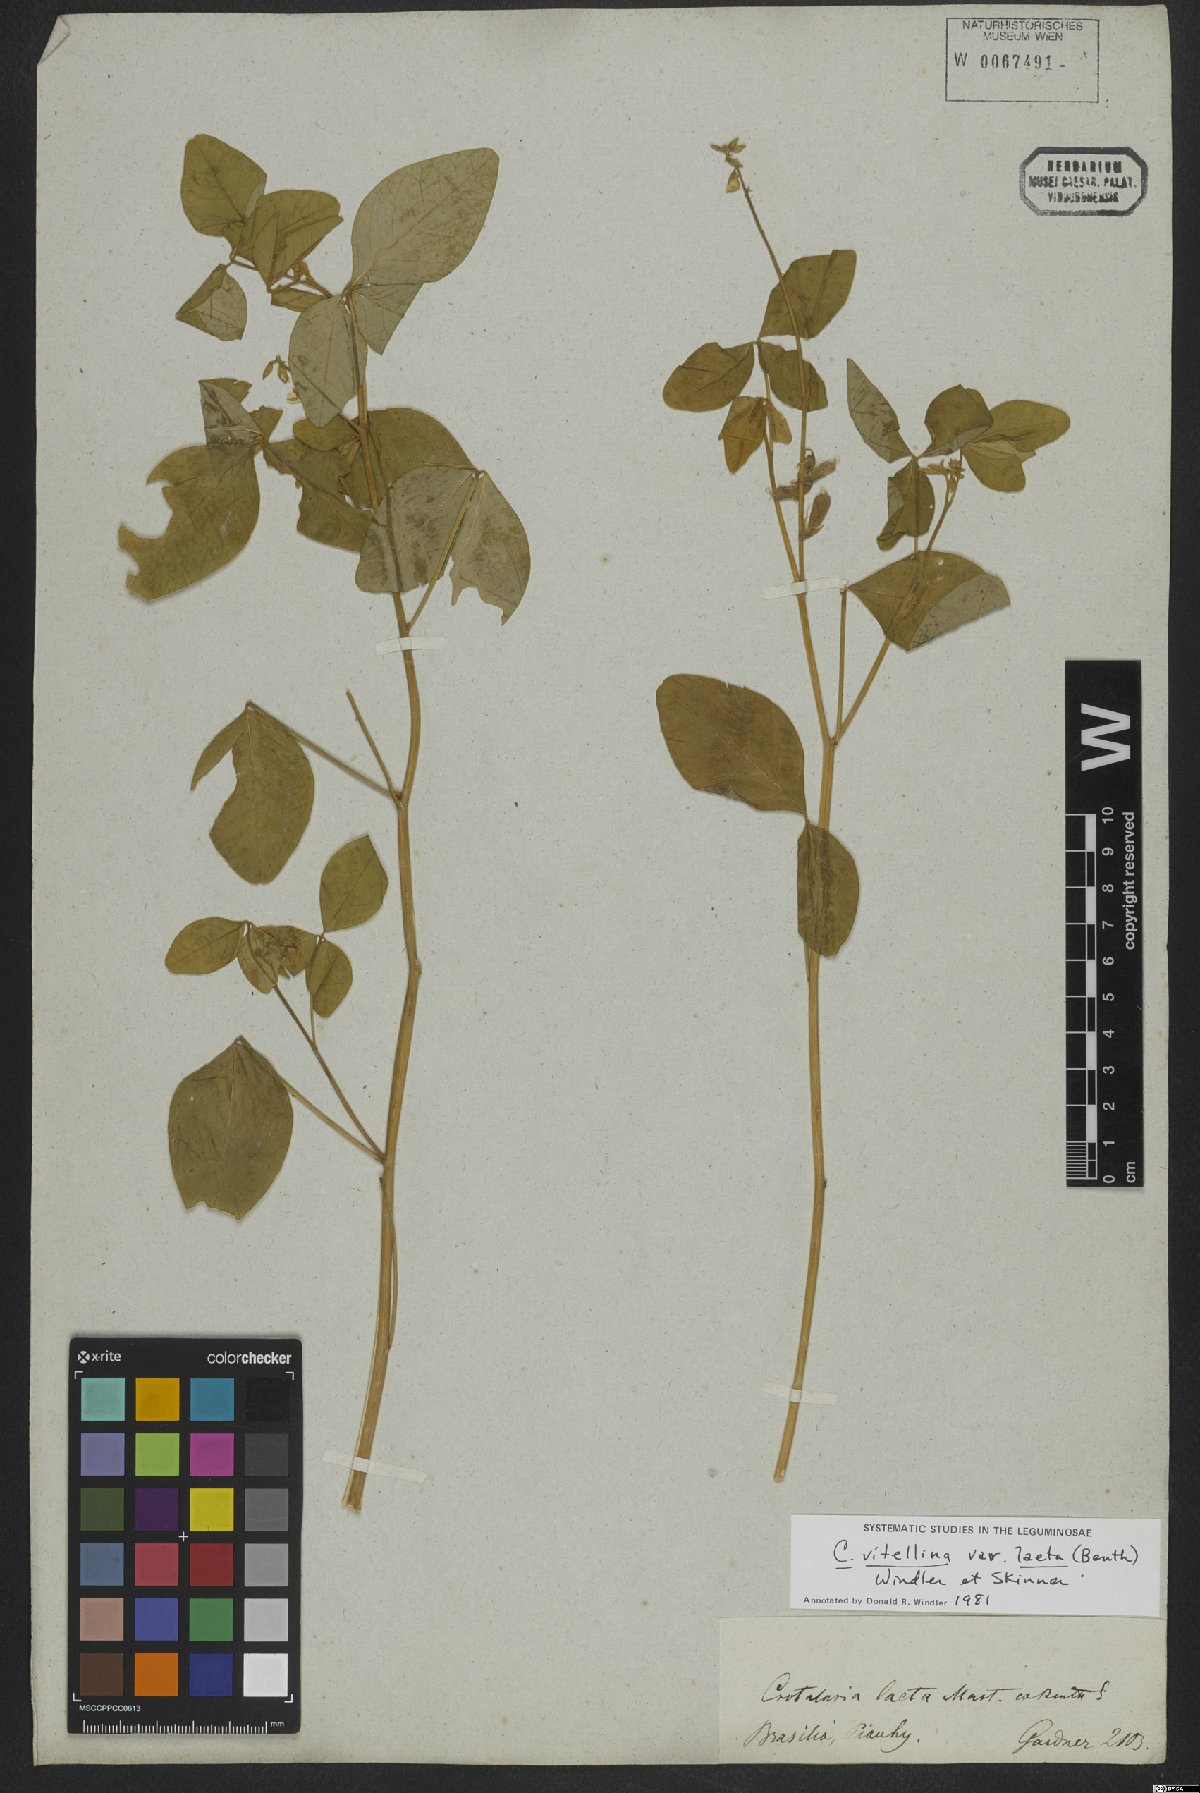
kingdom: Plantae
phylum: Tracheophyta
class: Magnoliopsida
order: Fabales
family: Fabaceae
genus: Crotalaria
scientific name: Crotalaria vitellina
